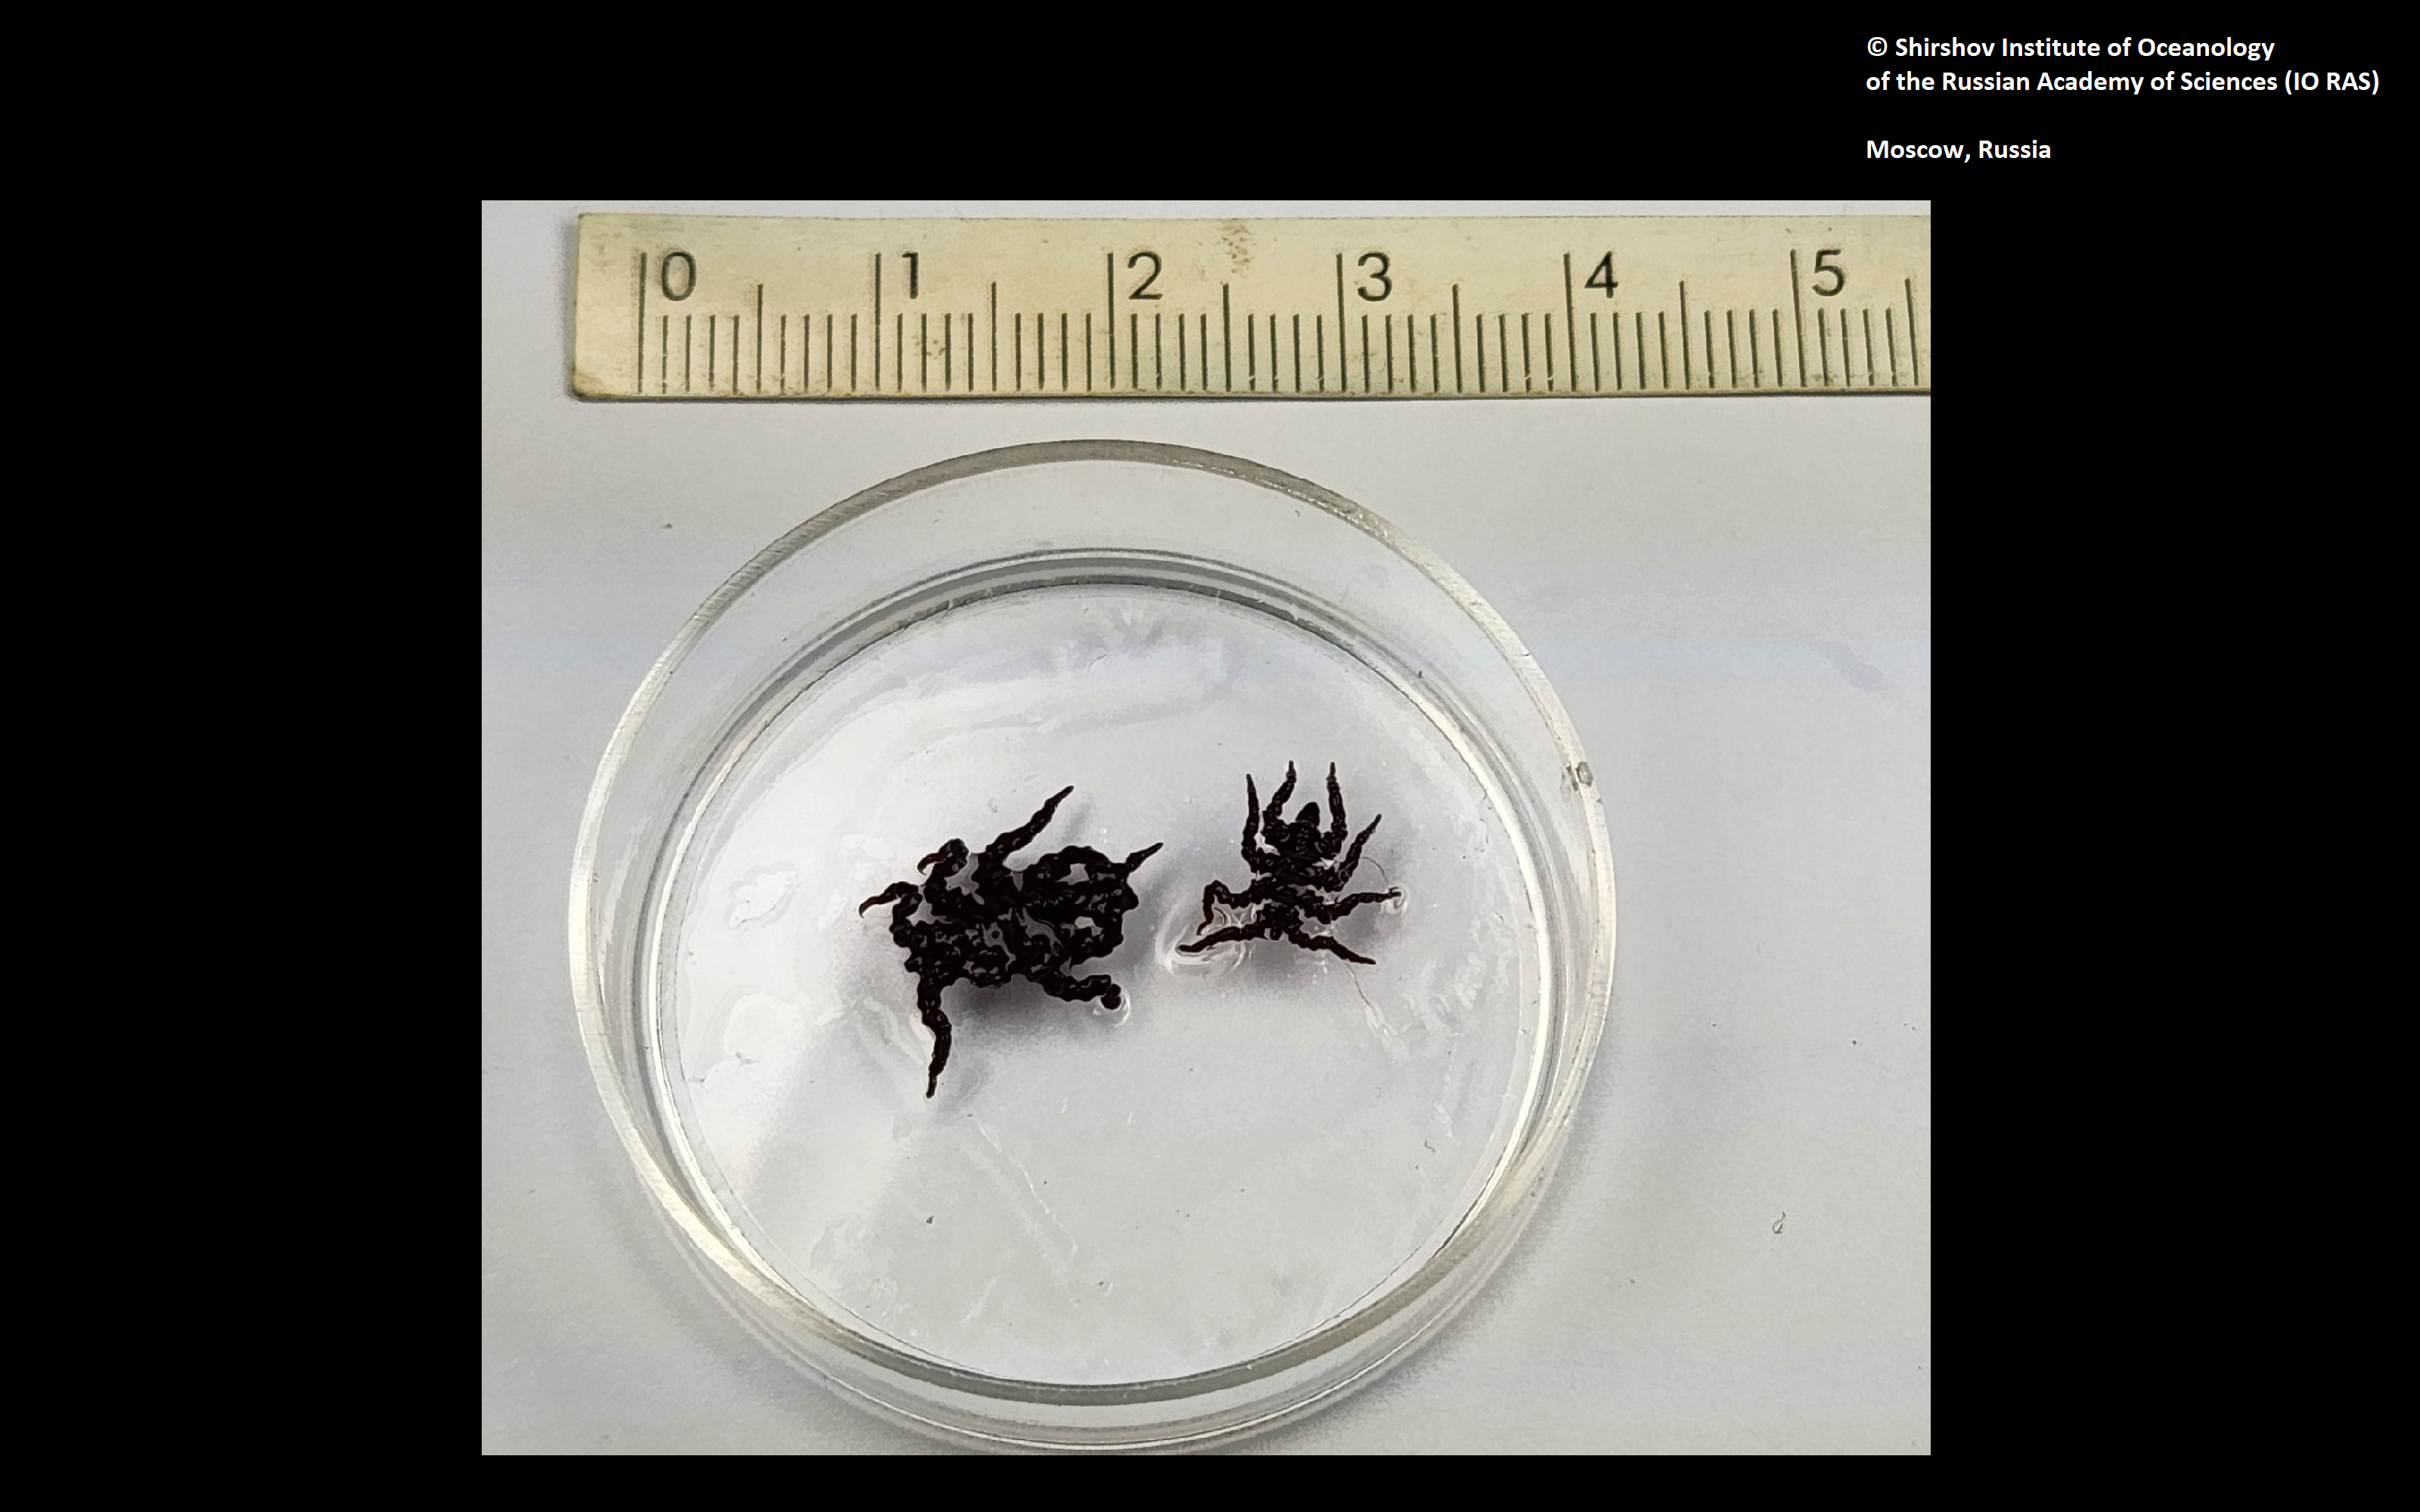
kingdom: Animalia
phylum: Arthropoda
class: Pycnogonida
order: Pantopoda
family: Pycnogonidae
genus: Pycnogonum
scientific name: Pycnogonum repentinum
